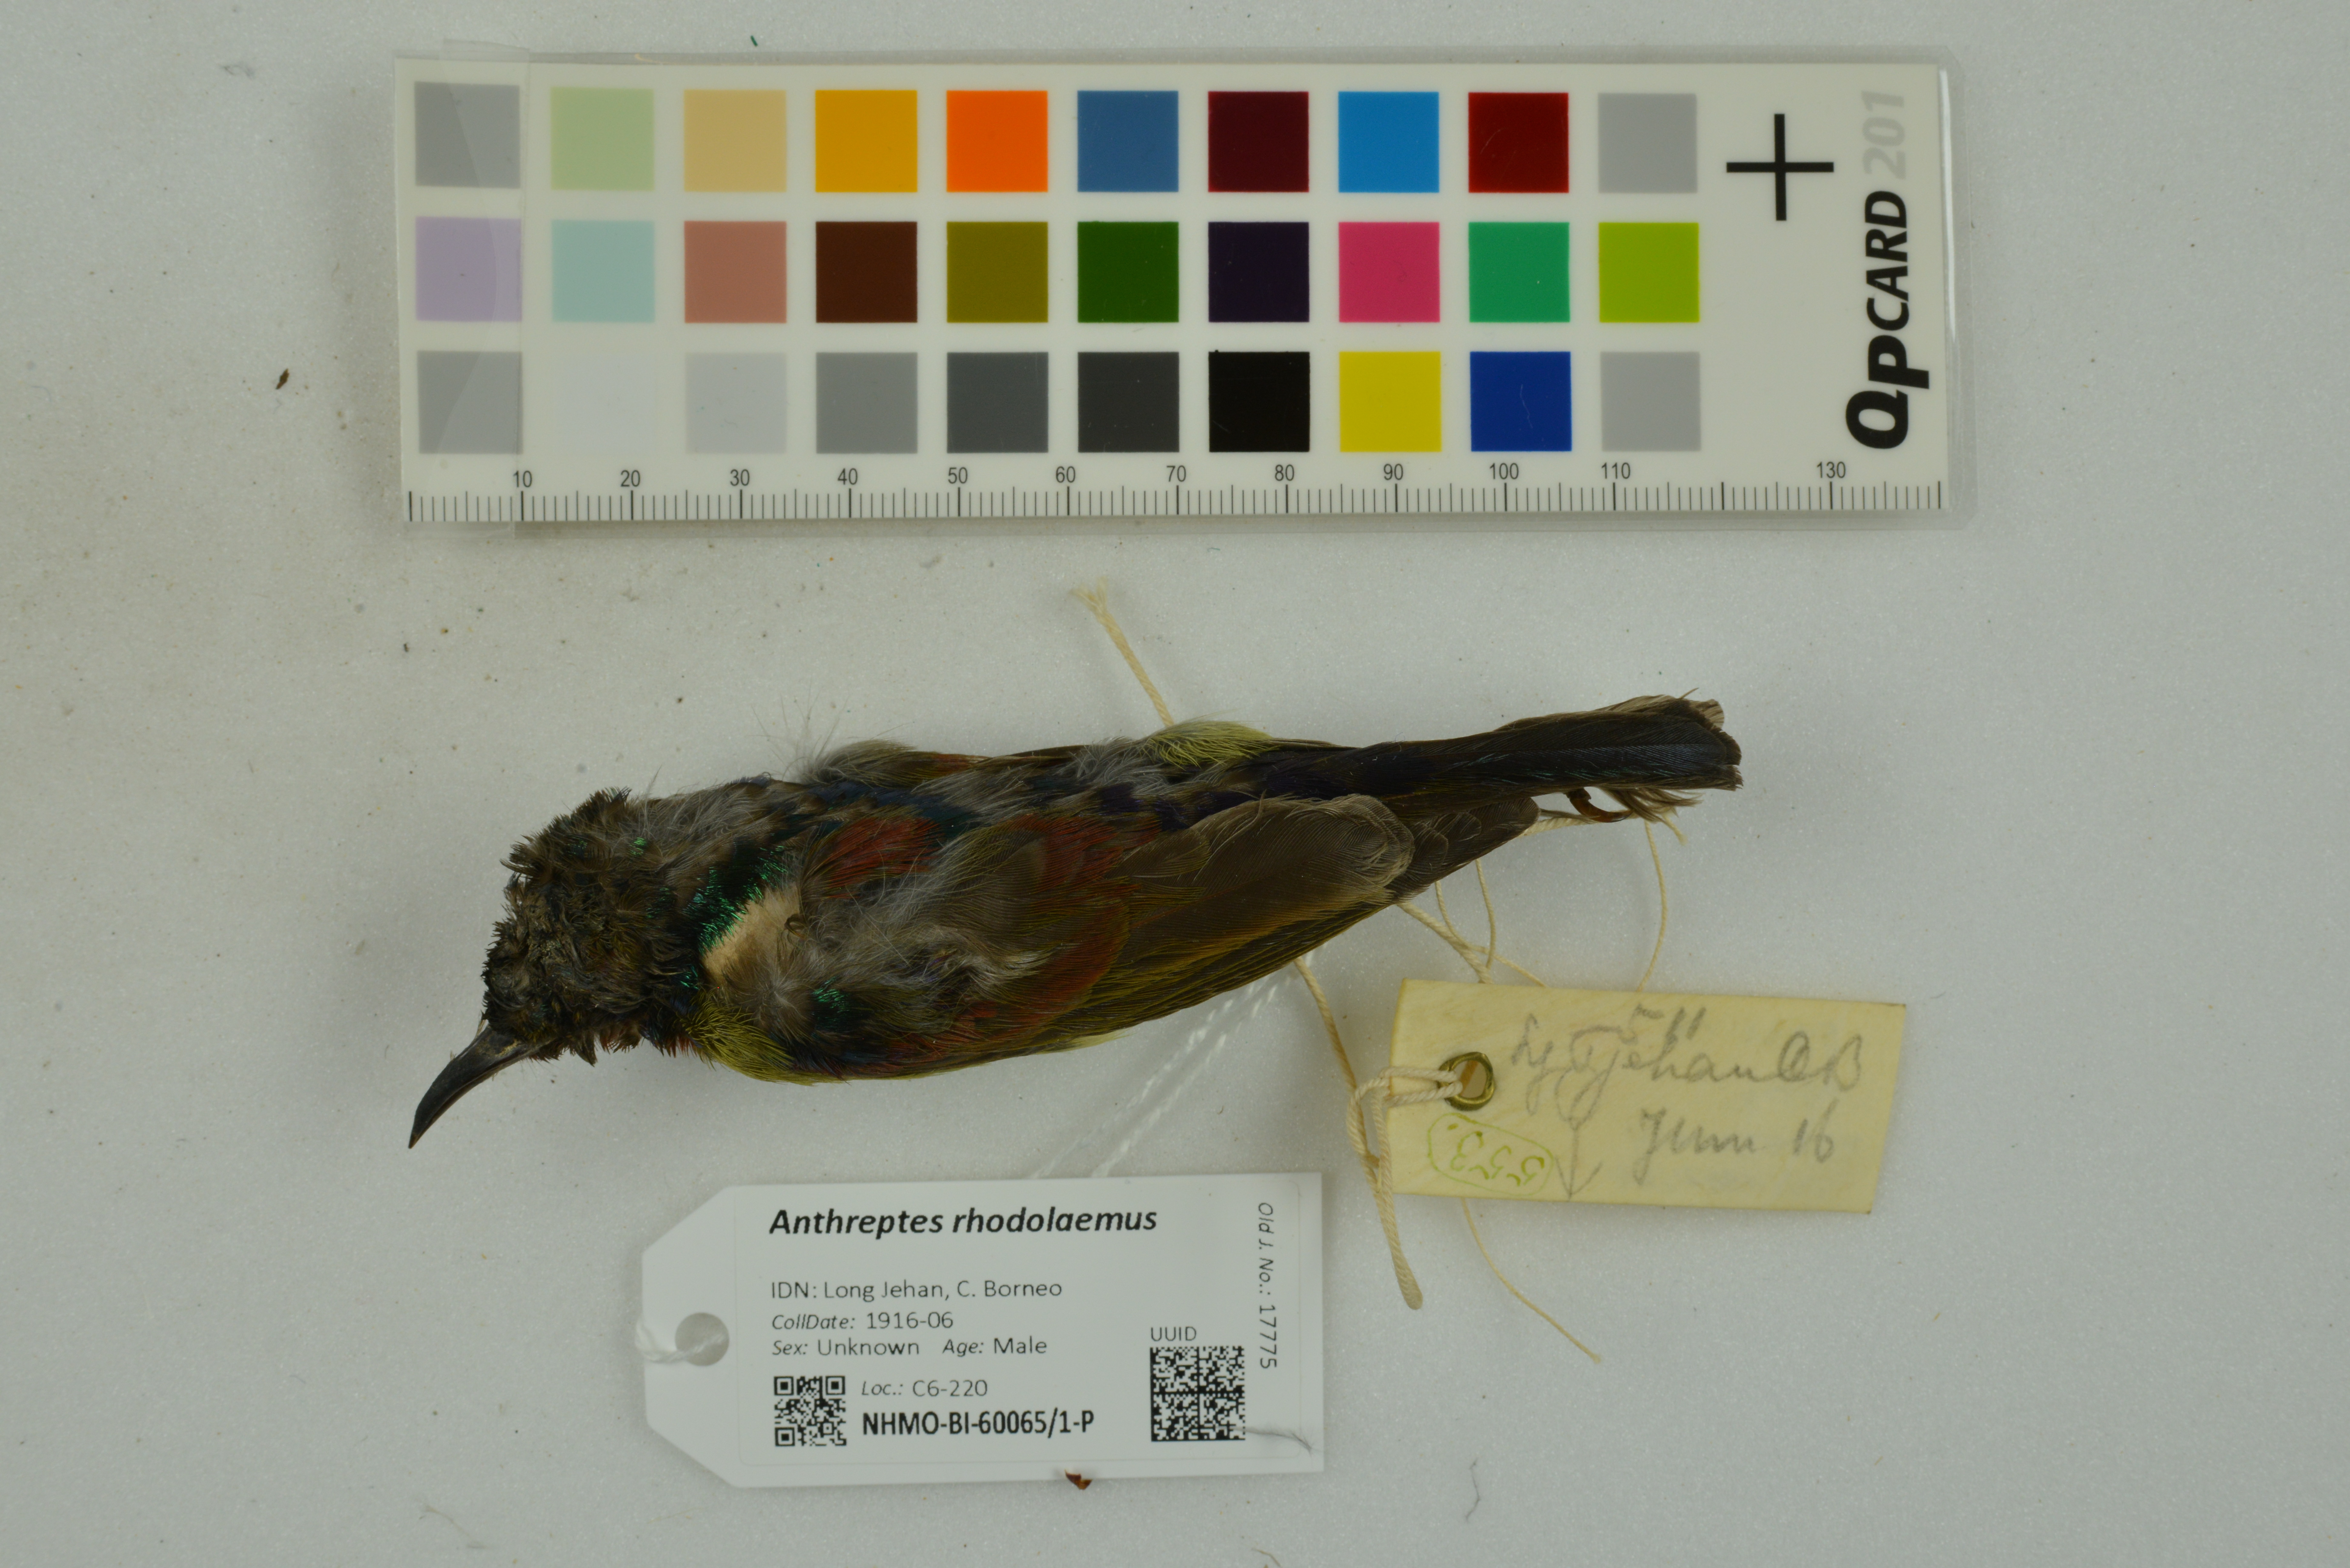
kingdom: Animalia
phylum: Chordata
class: Aves
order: Passeriformes
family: Nectariniidae
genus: Anthreptes
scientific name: Anthreptes rhodolaemus
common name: Red-throated sunbird
